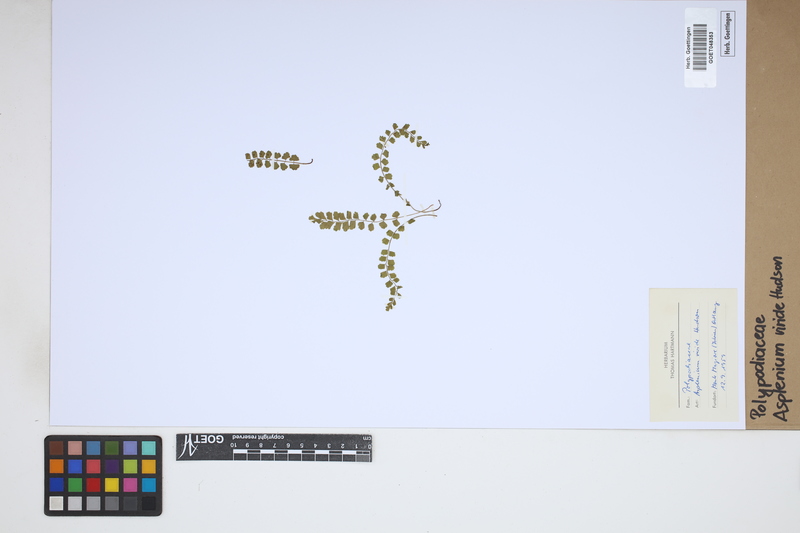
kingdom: Plantae
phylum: Tracheophyta
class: Polypodiopsida
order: Polypodiales
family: Aspleniaceae
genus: Asplenium
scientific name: Asplenium viride
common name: Green spleenwort
